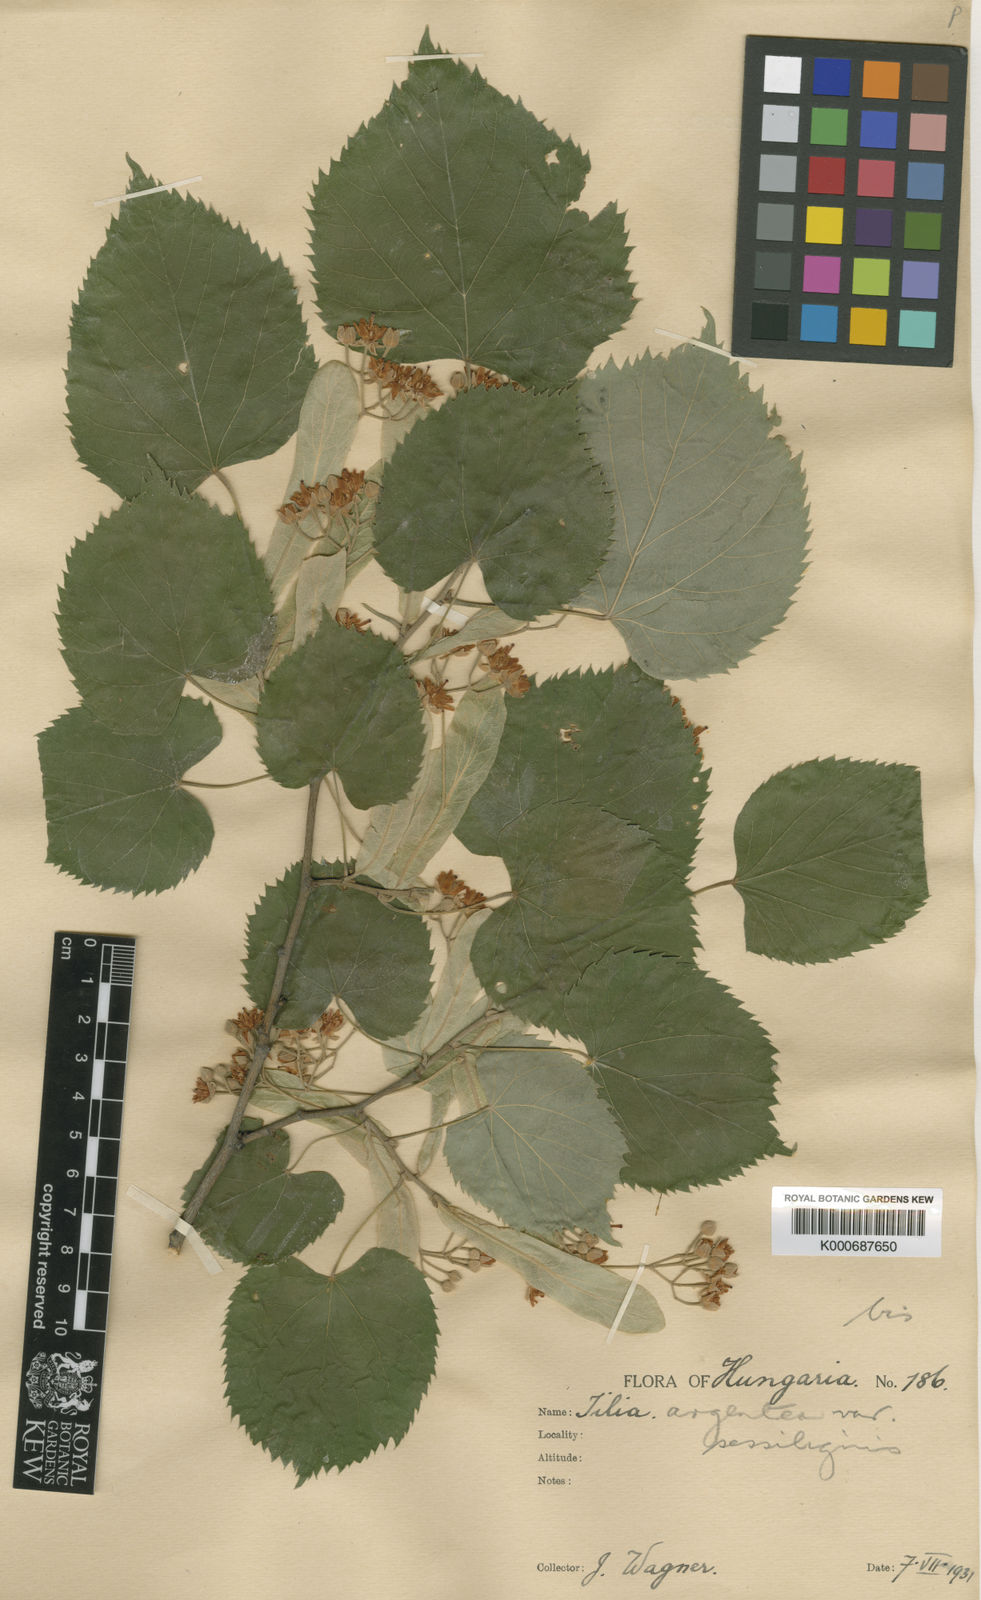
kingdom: Plantae
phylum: Tracheophyta
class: Magnoliopsida
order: Malvales
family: Malvaceae
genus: Tilia
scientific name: Tilia tomentosa
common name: Silver lime
